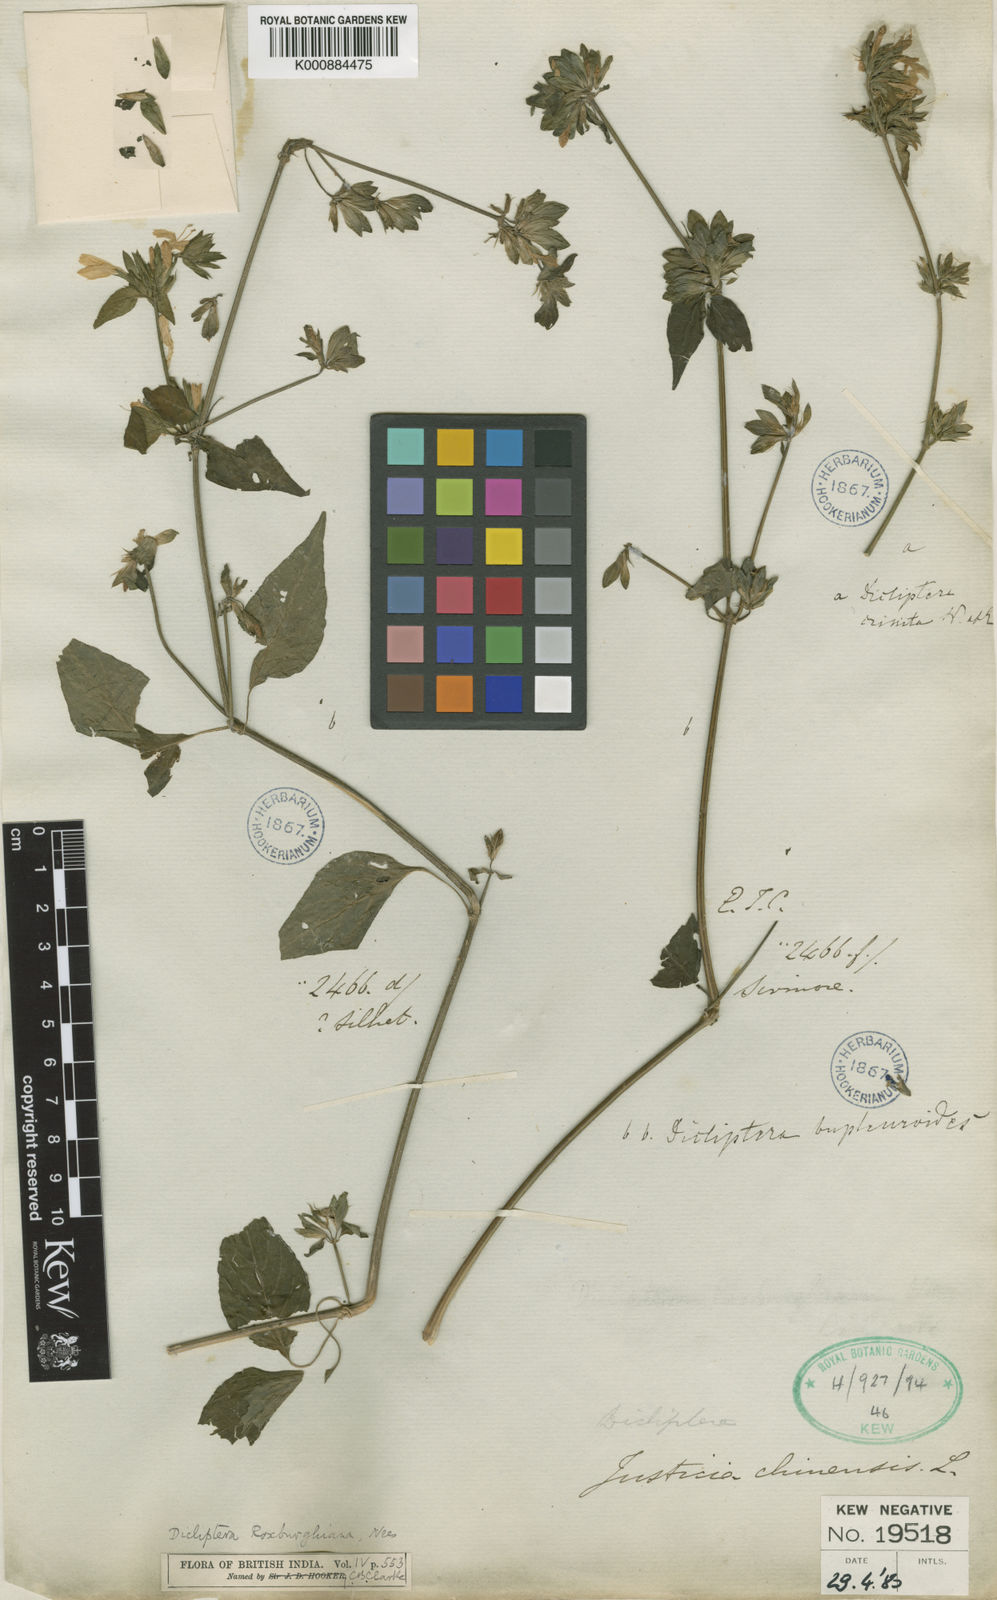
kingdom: Plantae
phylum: Tracheophyta
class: Magnoliopsida
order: Lamiales
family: Acanthaceae
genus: Dicliptera
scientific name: Dicliptera bupleuroides
